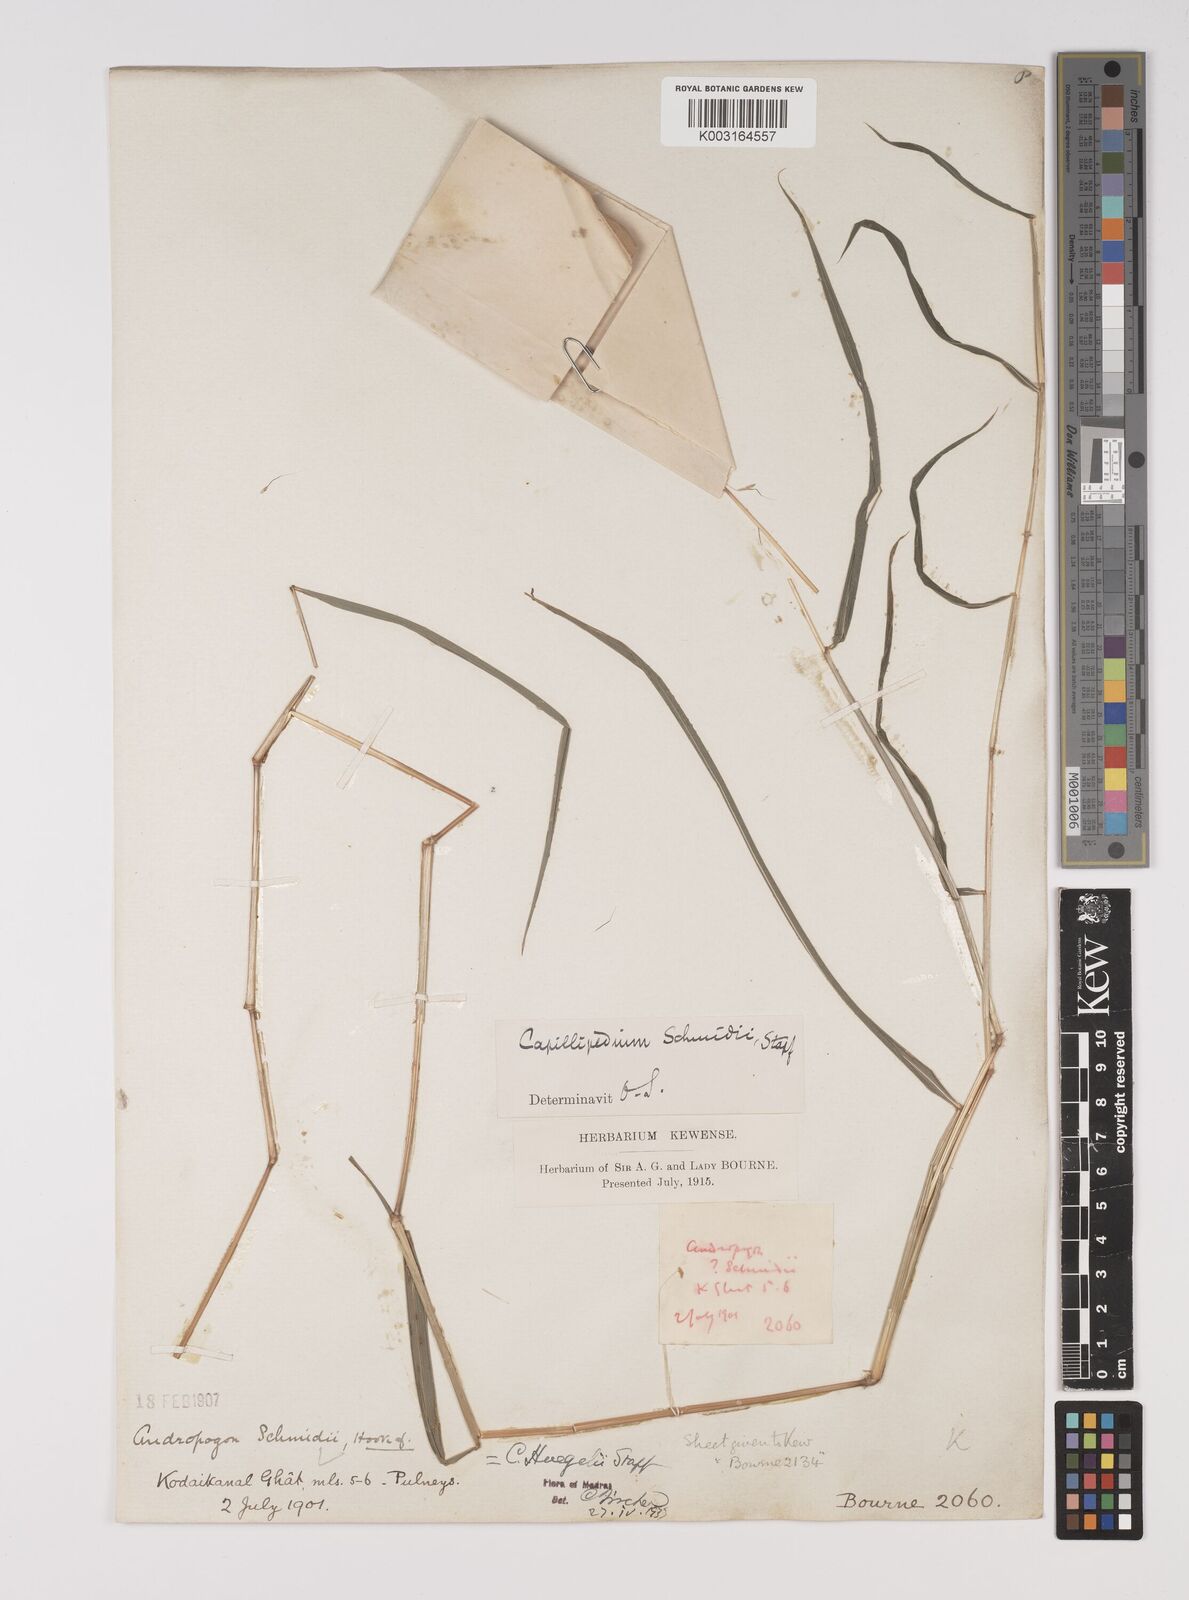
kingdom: Plantae
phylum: Tracheophyta
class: Liliopsida
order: Poales
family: Poaceae
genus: Capillipedium
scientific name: Capillipedium huegelii
